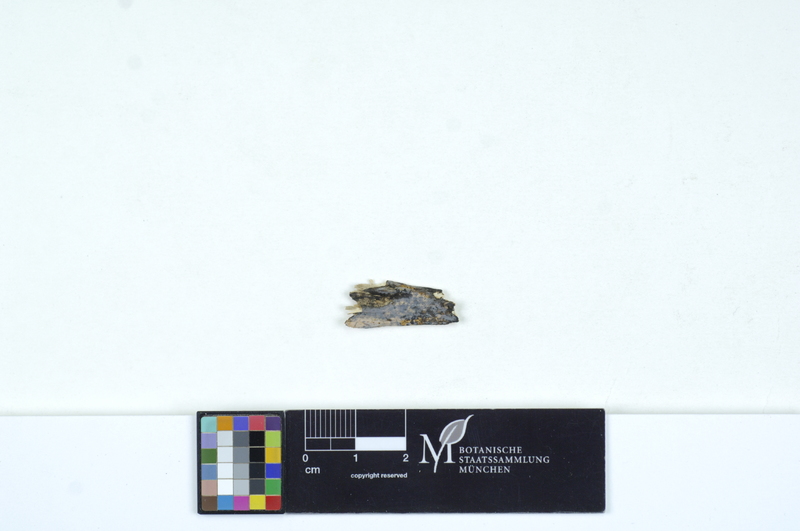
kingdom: Plantae
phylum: Tracheophyta
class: Magnoliopsida
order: Malpighiales
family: Salicaceae
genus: Salix
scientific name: Salix
